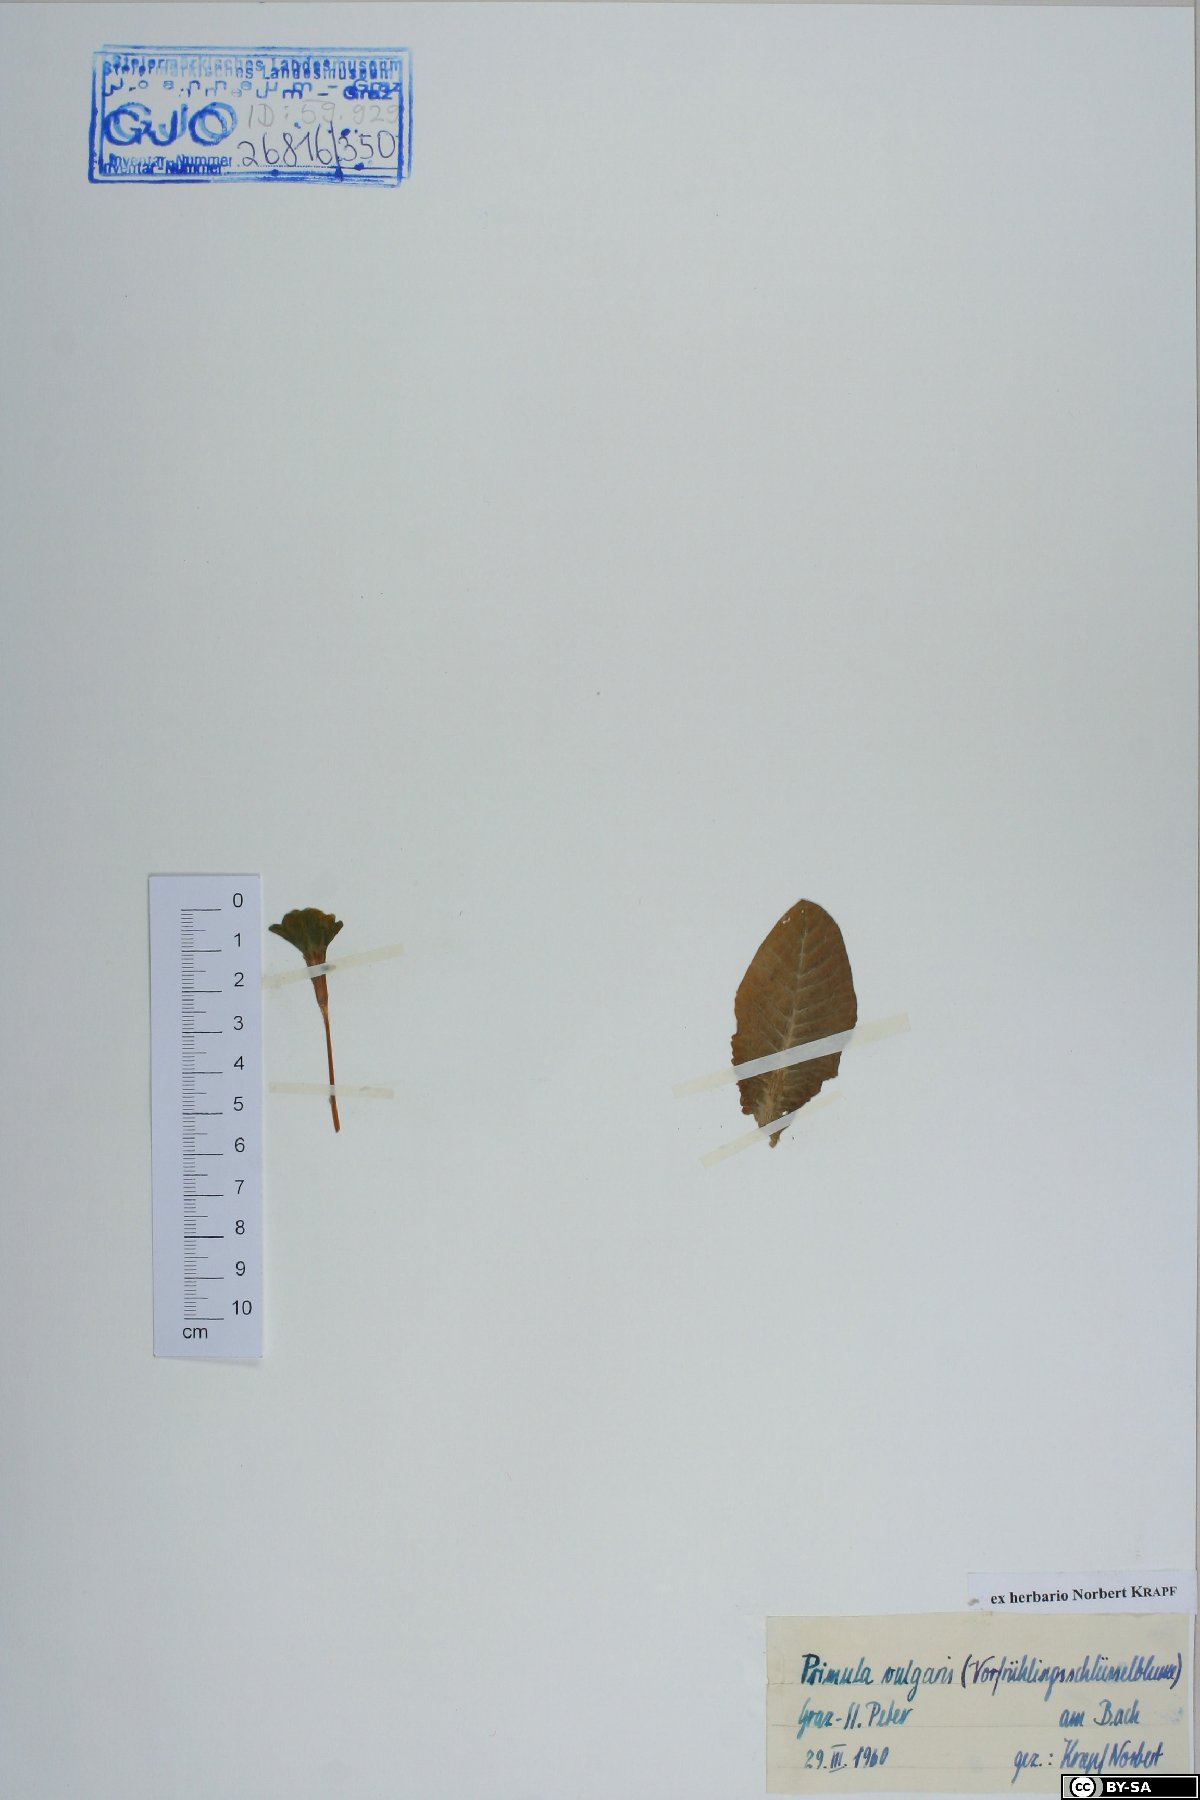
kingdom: Plantae
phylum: Tracheophyta
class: Magnoliopsida
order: Ericales
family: Primulaceae
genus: Primula
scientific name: Primula vulgaris
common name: Primrose
